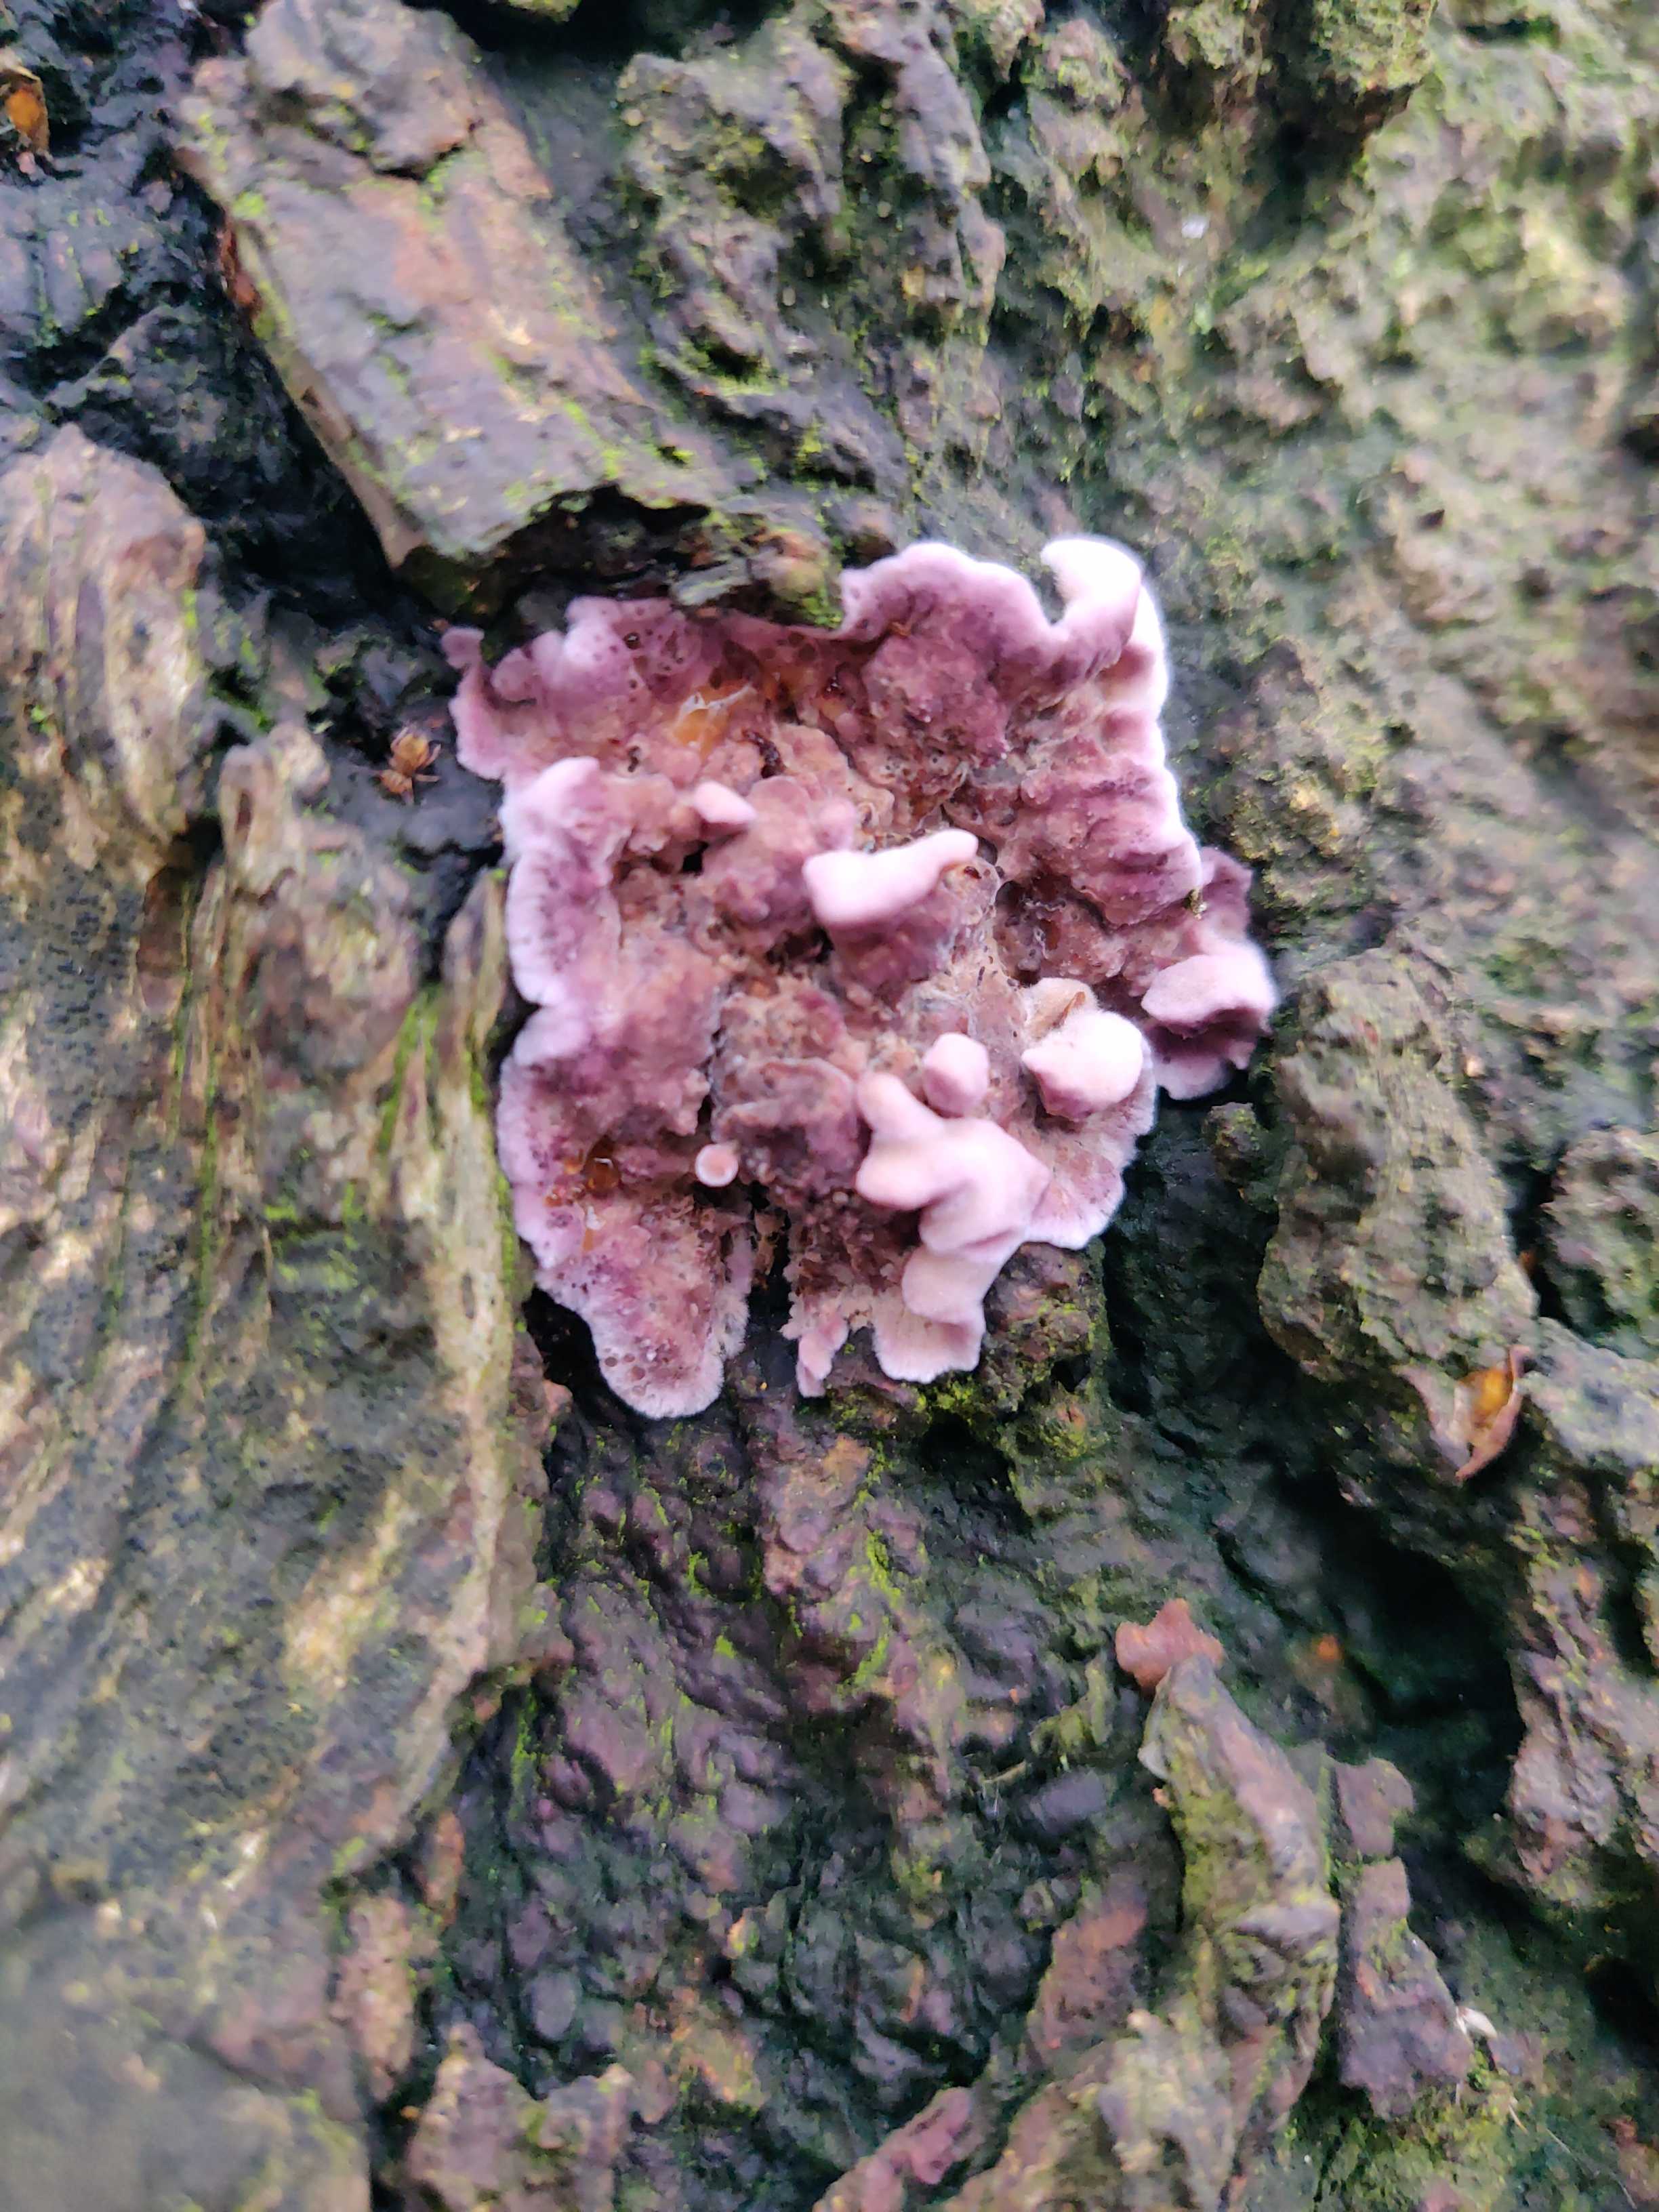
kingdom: Fungi
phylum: Basidiomycota
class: Agaricomycetes
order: Agaricales
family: Cyphellaceae
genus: Chondrostereum
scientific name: Chondrostereum purpureum
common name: purpurlædersvamp
